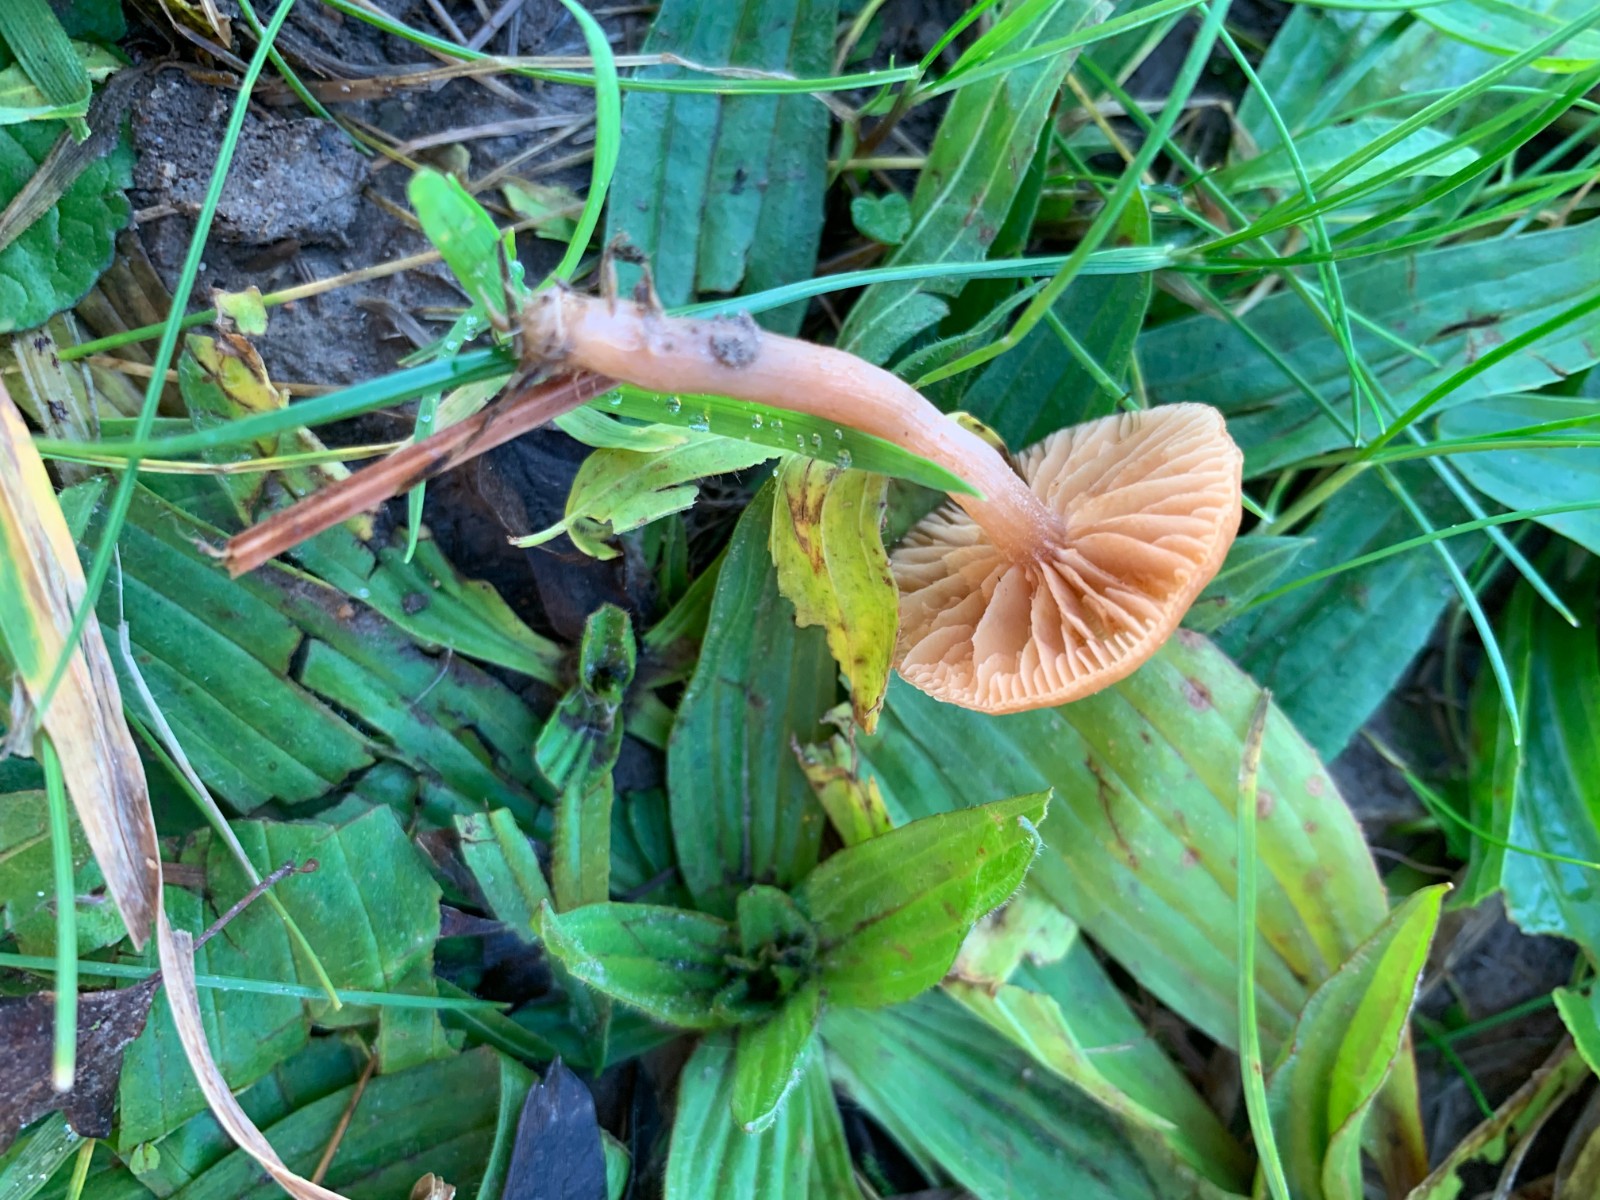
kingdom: Fungi
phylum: Basidiomycota
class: Agaricomycetes
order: Agaricales
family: Tubariaceae
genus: Tubaria
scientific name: Tubaria furfuracea
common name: kliddet fnughat
